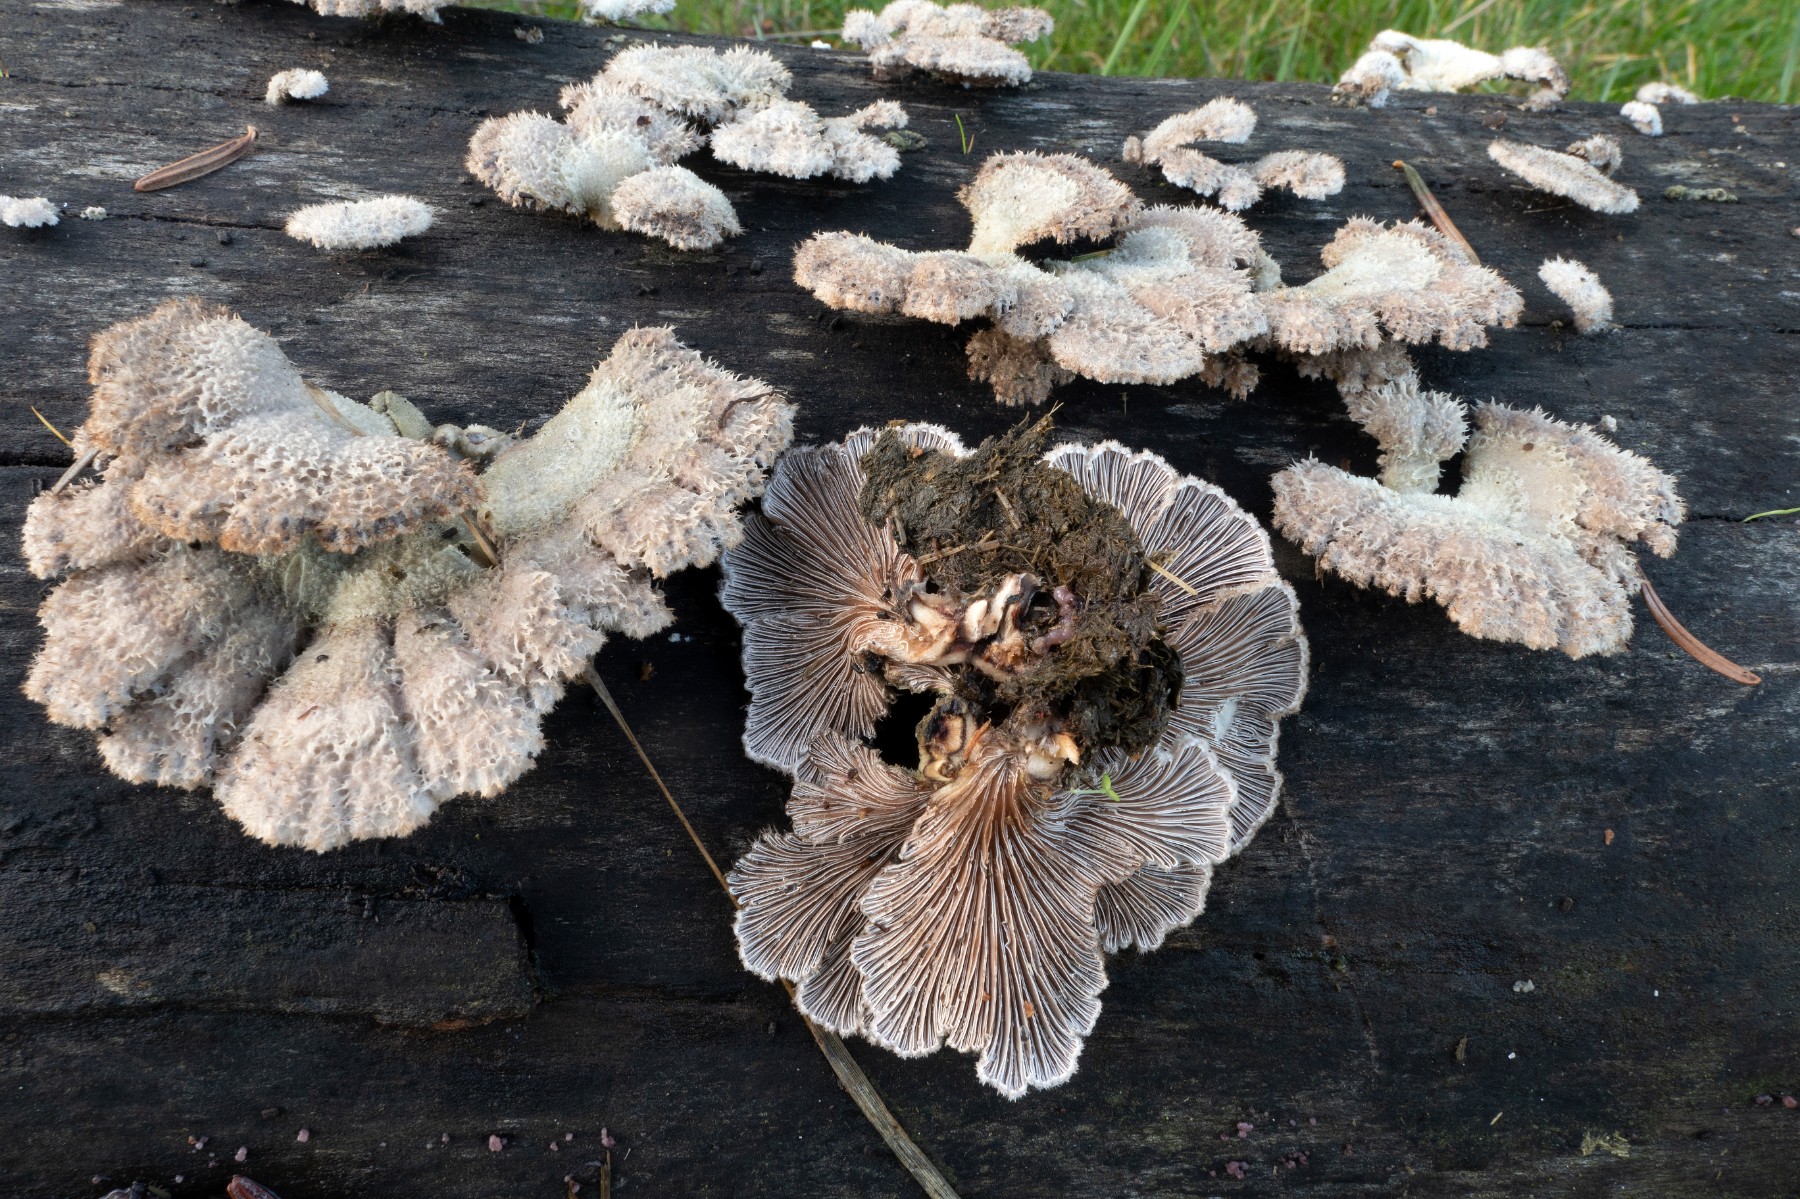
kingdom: Fungi
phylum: Basidiomycota
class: Agaricomycetes
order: Agaricales
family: Schizophyllaceae
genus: Schizophyllum
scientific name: Schizophyllum commune
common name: kløvblad
